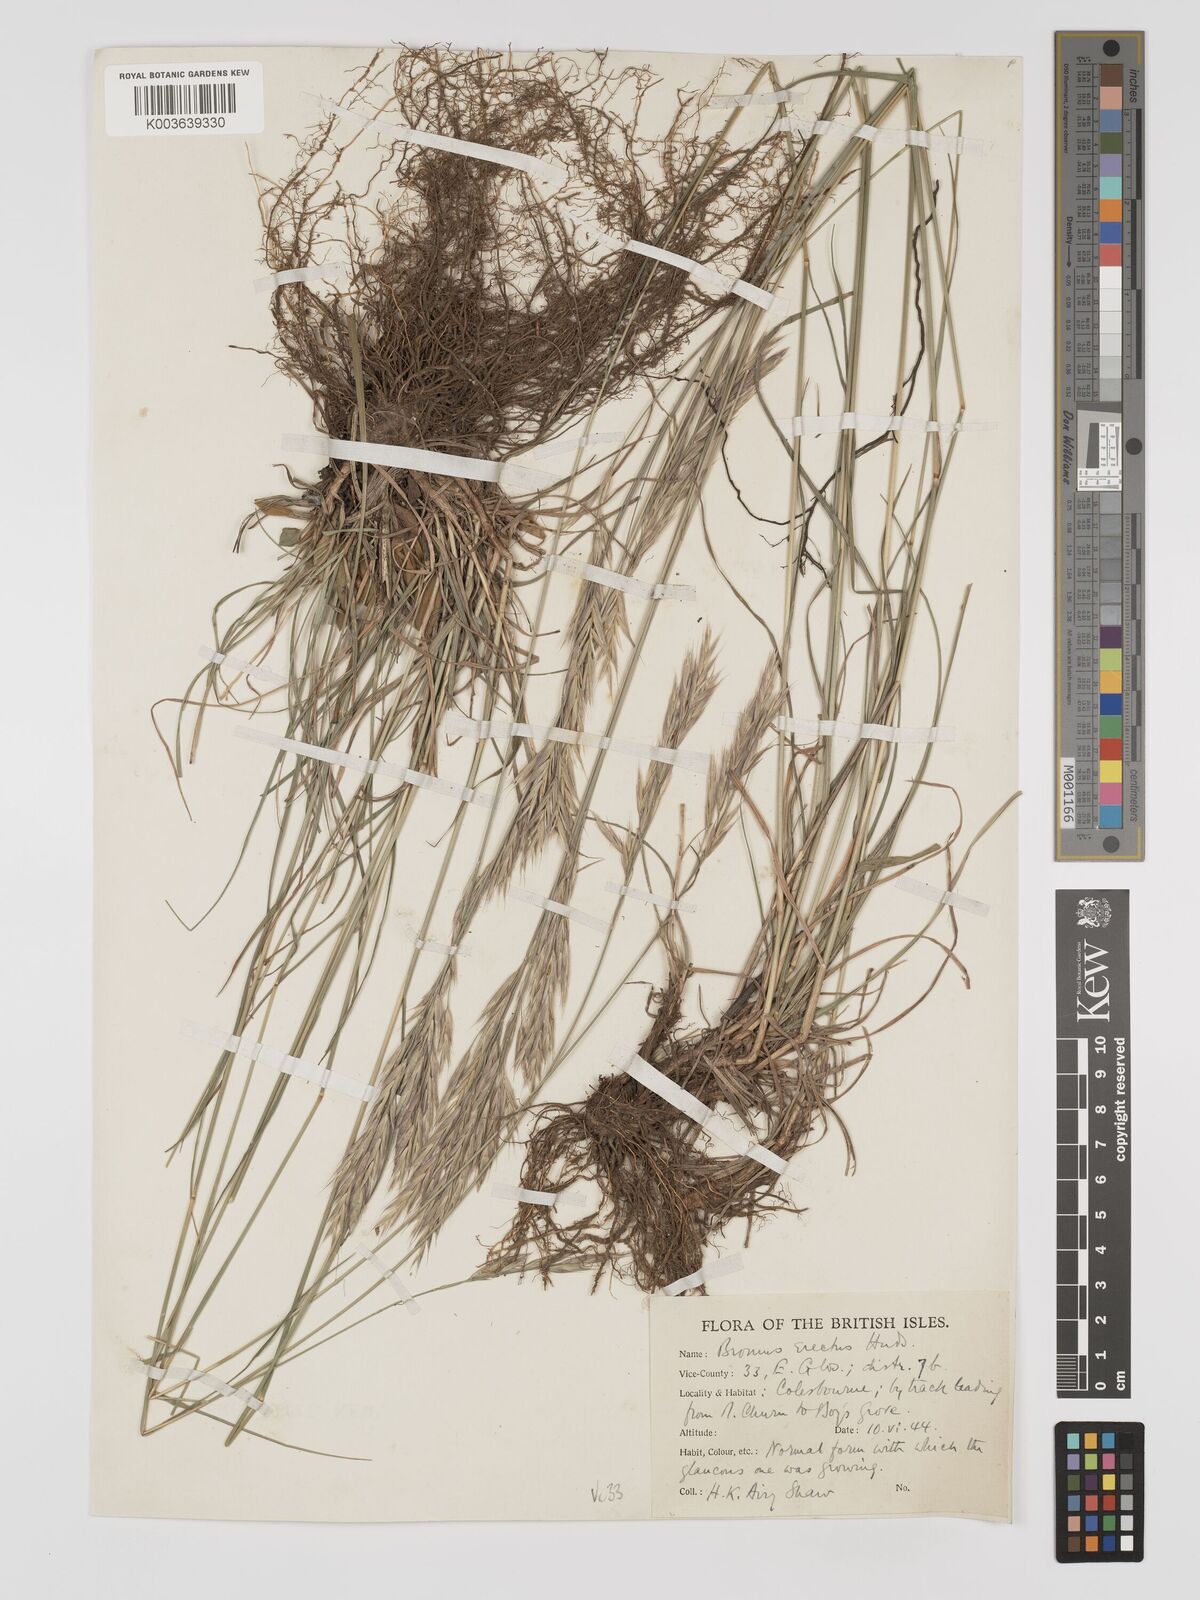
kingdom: Plantae
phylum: Tracheophyta
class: Liliopsida
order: Poales
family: Poaceae
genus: Bromus
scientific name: Bromus erectus
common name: Erect brome
